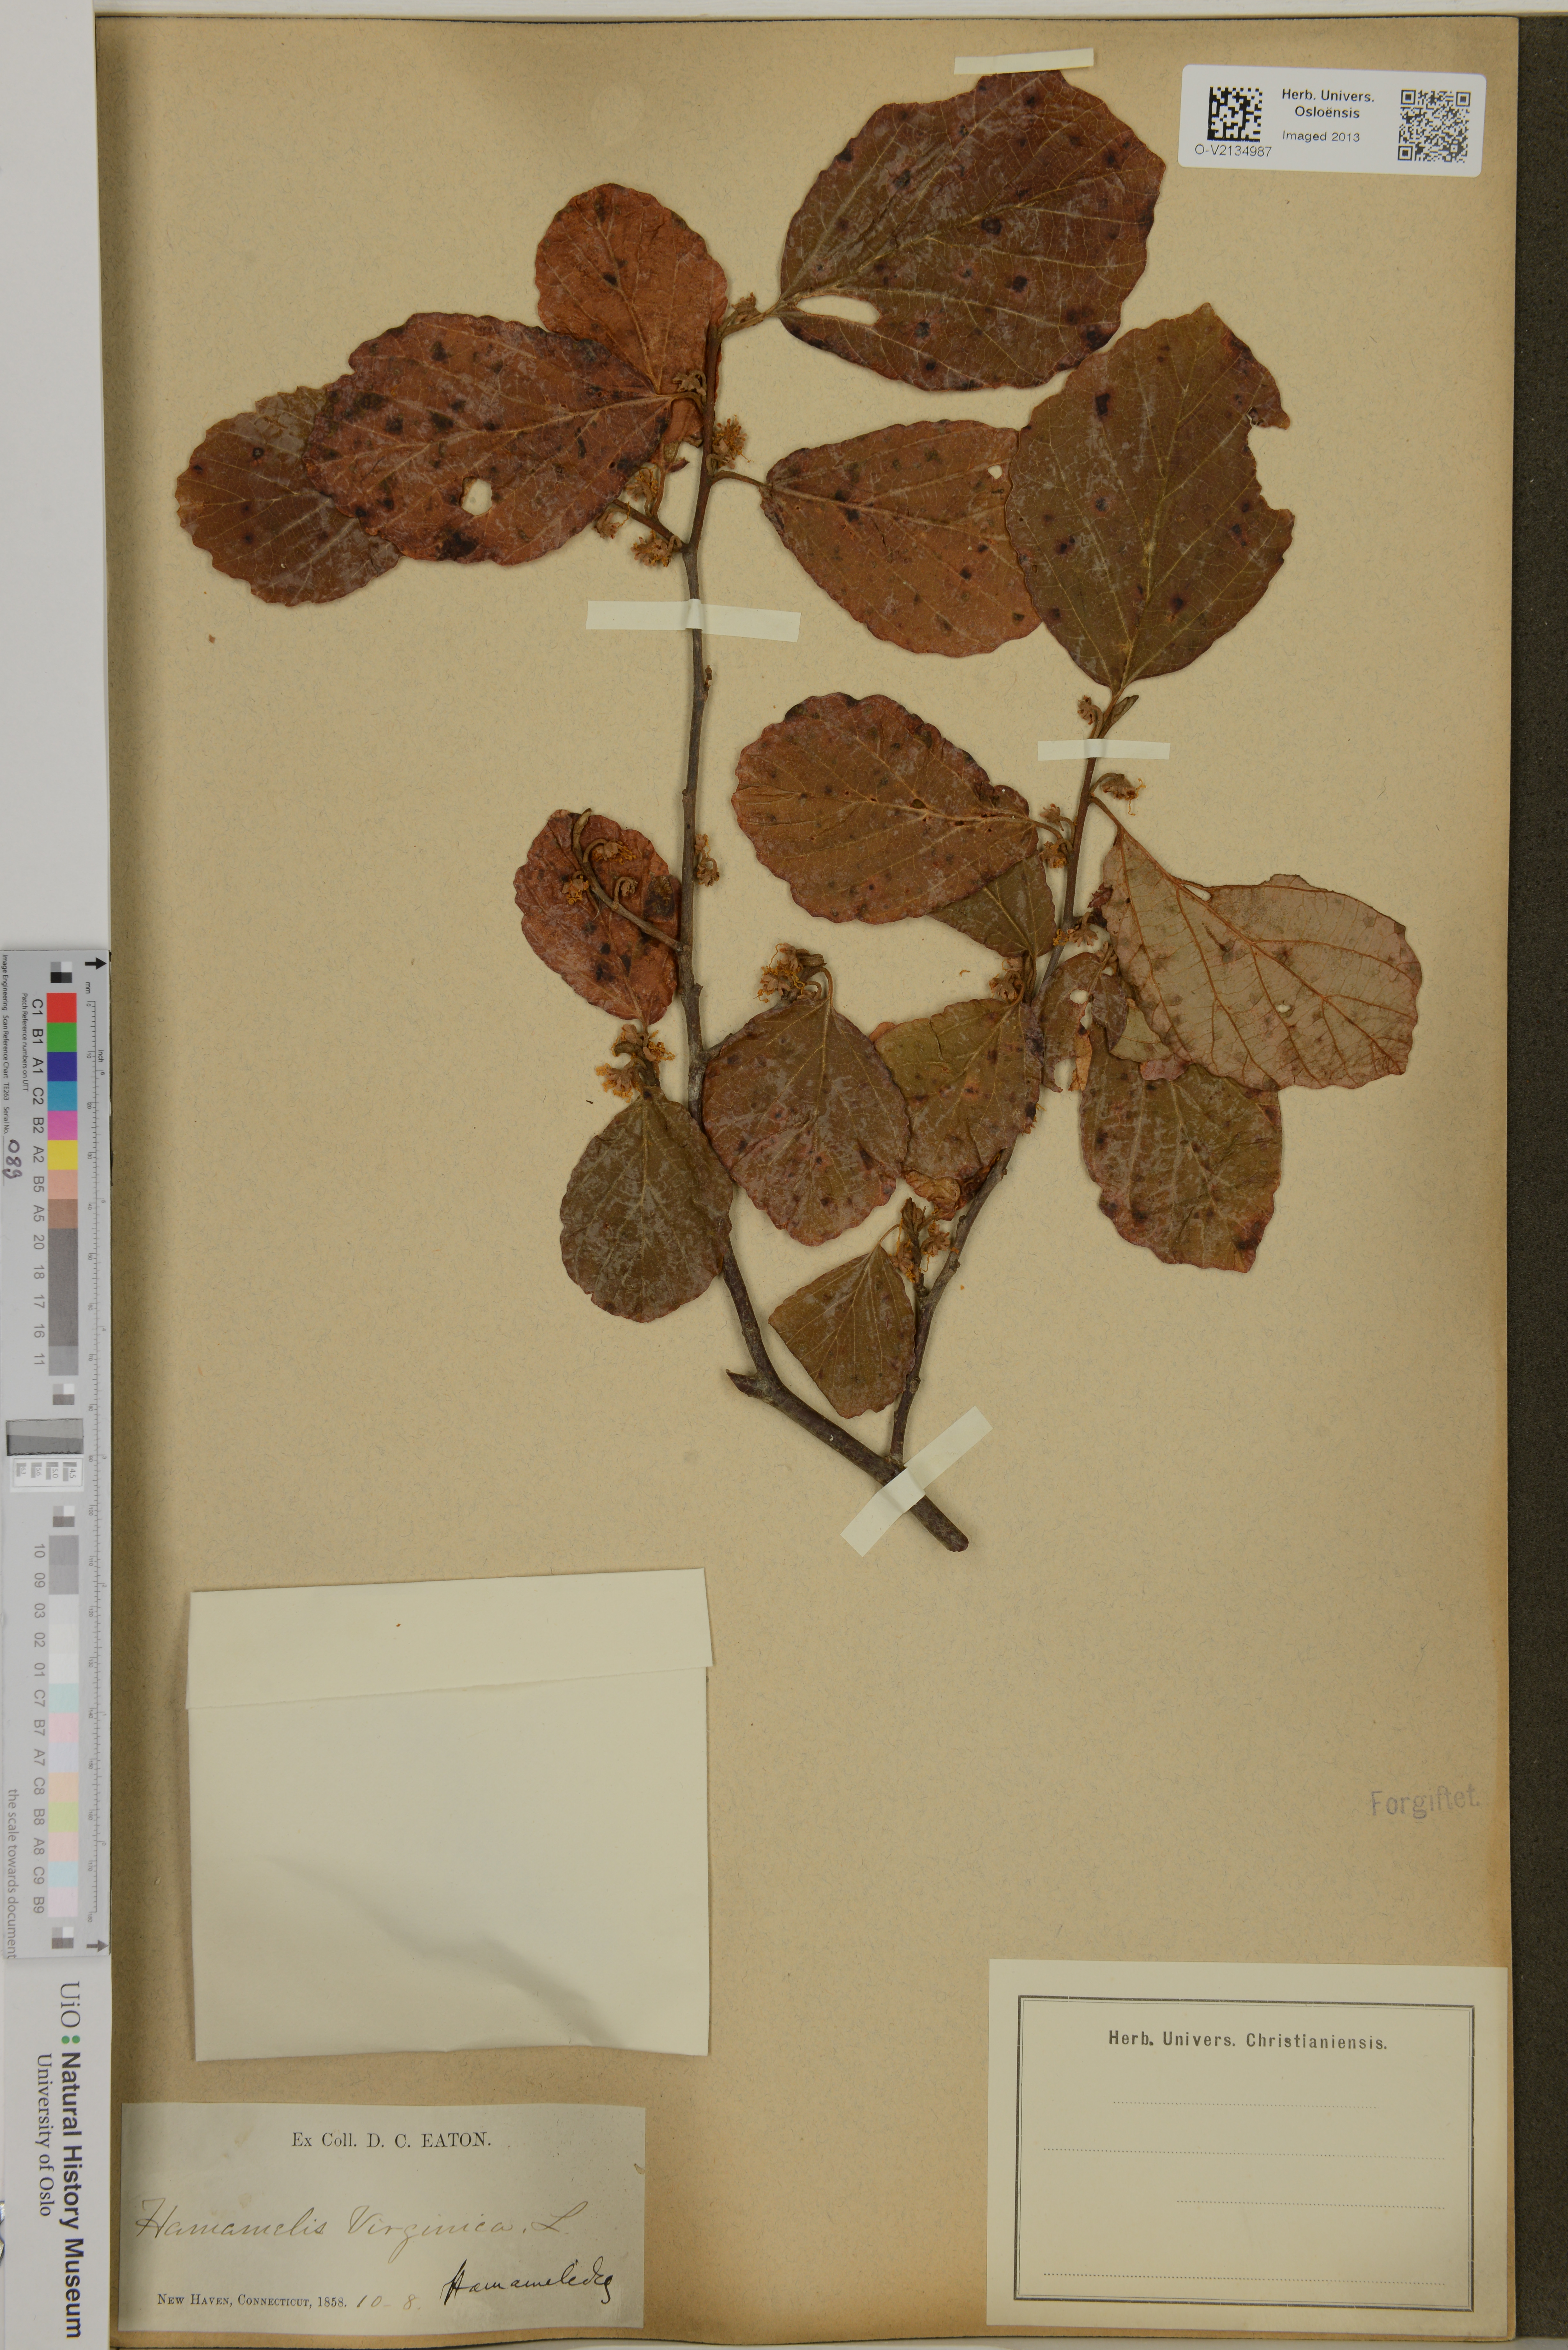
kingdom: Plantae
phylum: Tracheophyta
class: Magnoliopsida
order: Saxifragales
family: Hamamelidaceae
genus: Hamamelis
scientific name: Hamamelis virginiana
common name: Witch-hazel
